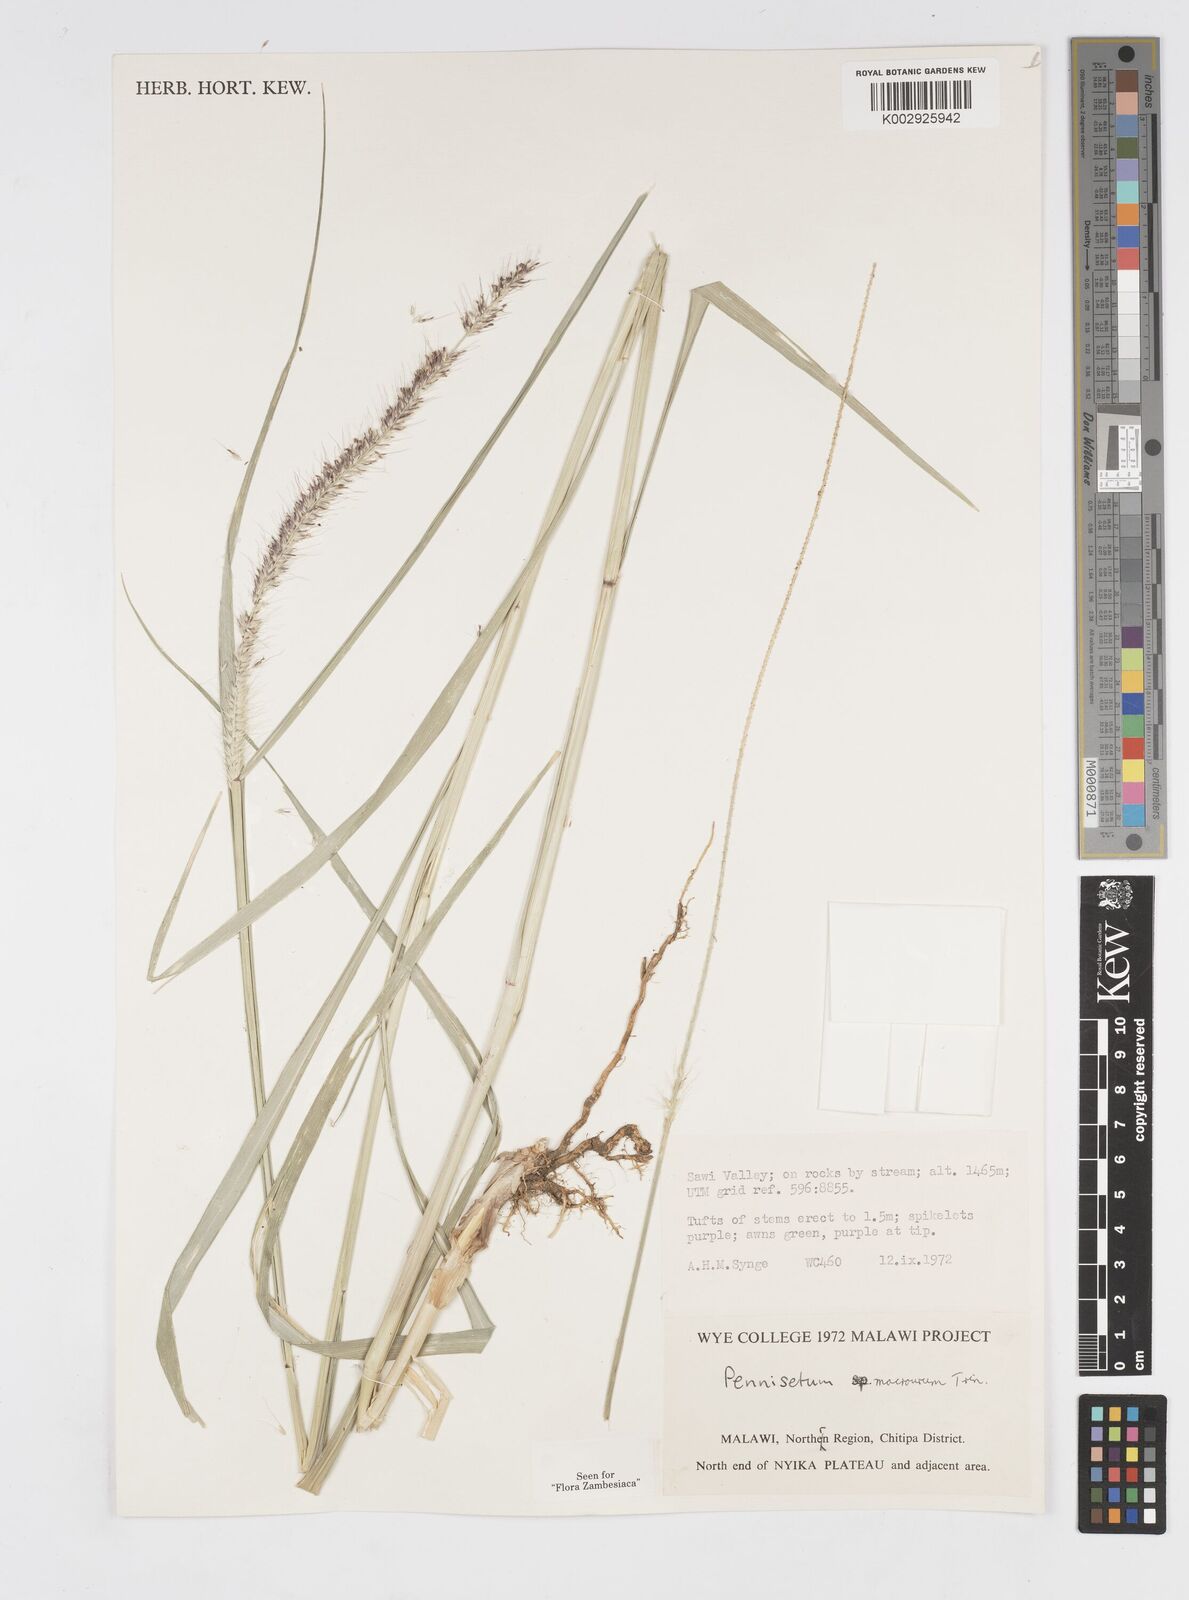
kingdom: Plantae
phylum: Tracheophyta
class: Liliopsida
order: Poales
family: Poaceae
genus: Cenchrus
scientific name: Cenchrus caudatus
